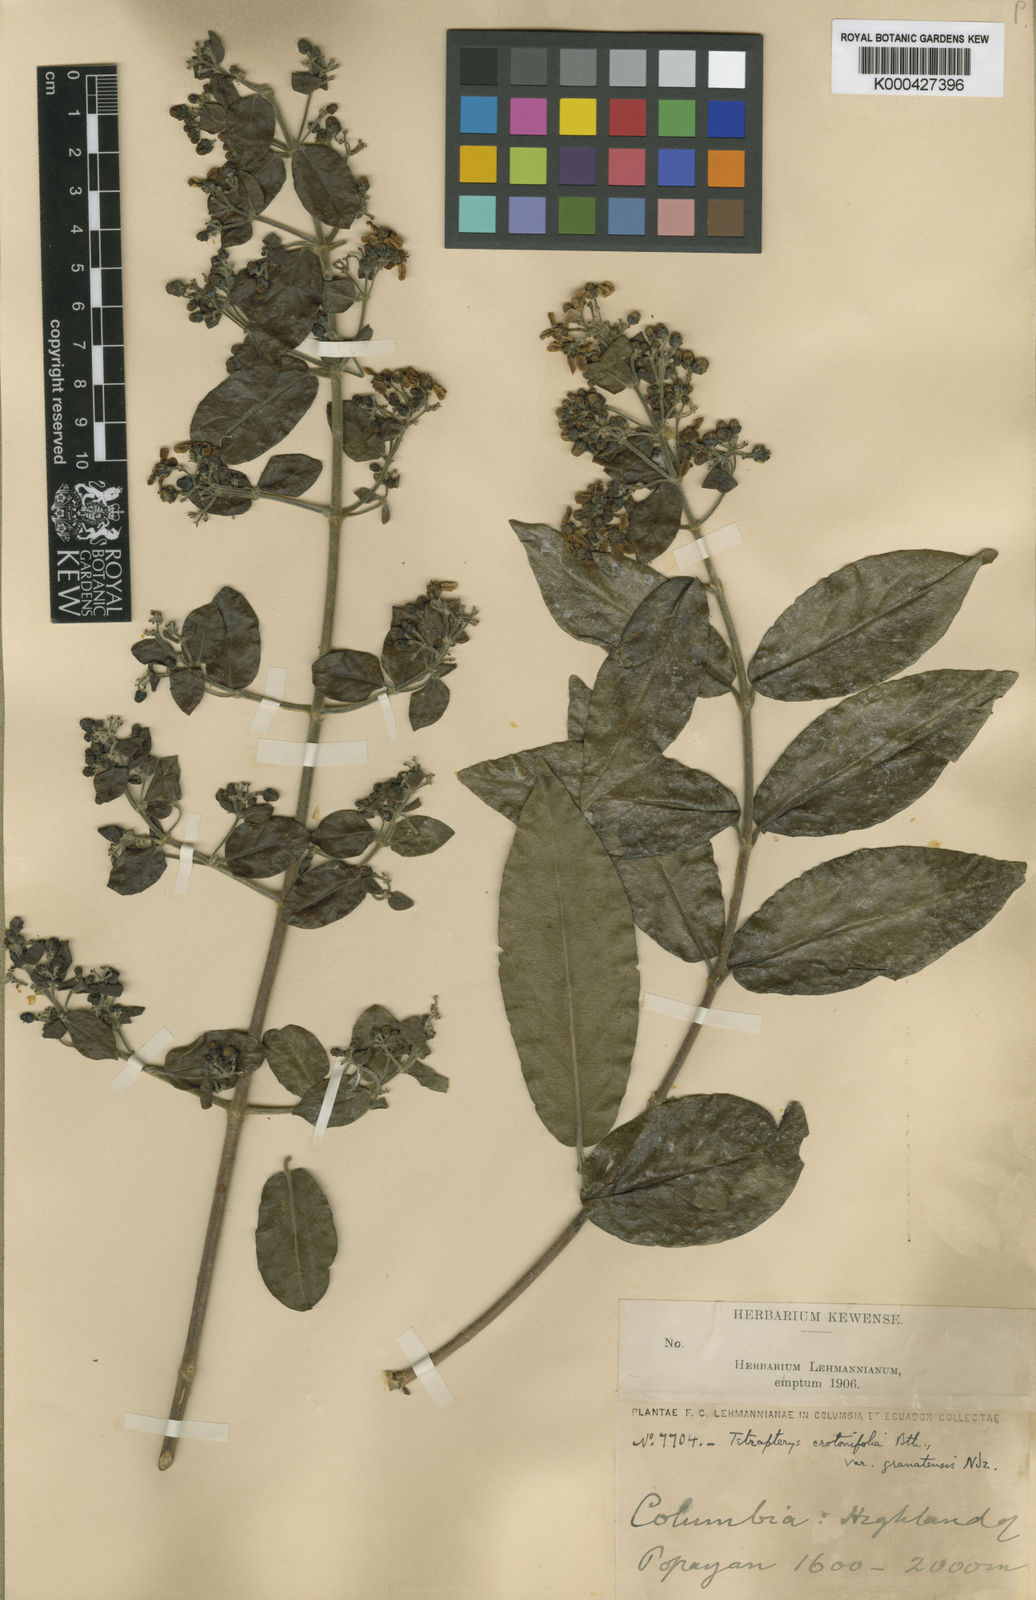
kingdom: Plantae
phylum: Tracheophyta
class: Magnoliopsida
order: Malpighiales
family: Malpighiaceae
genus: Tetrapterys
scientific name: Tetrapterys benthamii
